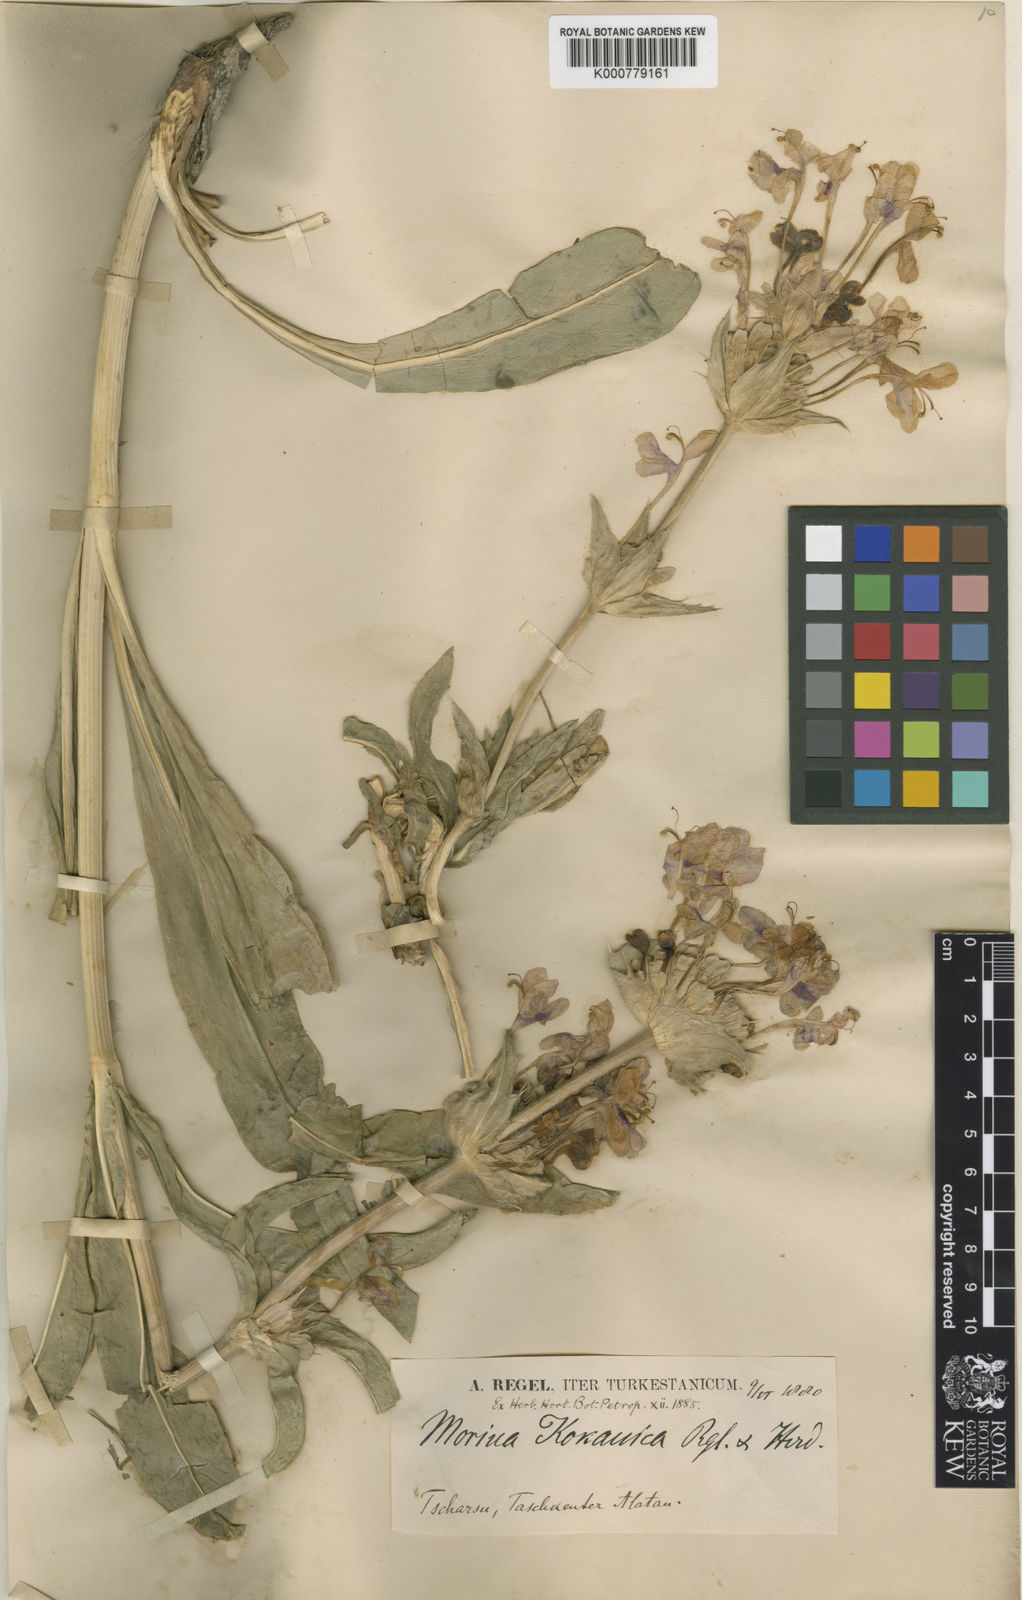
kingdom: Plantae
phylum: Tracheophyta
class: Magnoliopsida
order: Dipsacales
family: Caprifoliaceae
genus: Morina
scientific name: Morina kokanica
